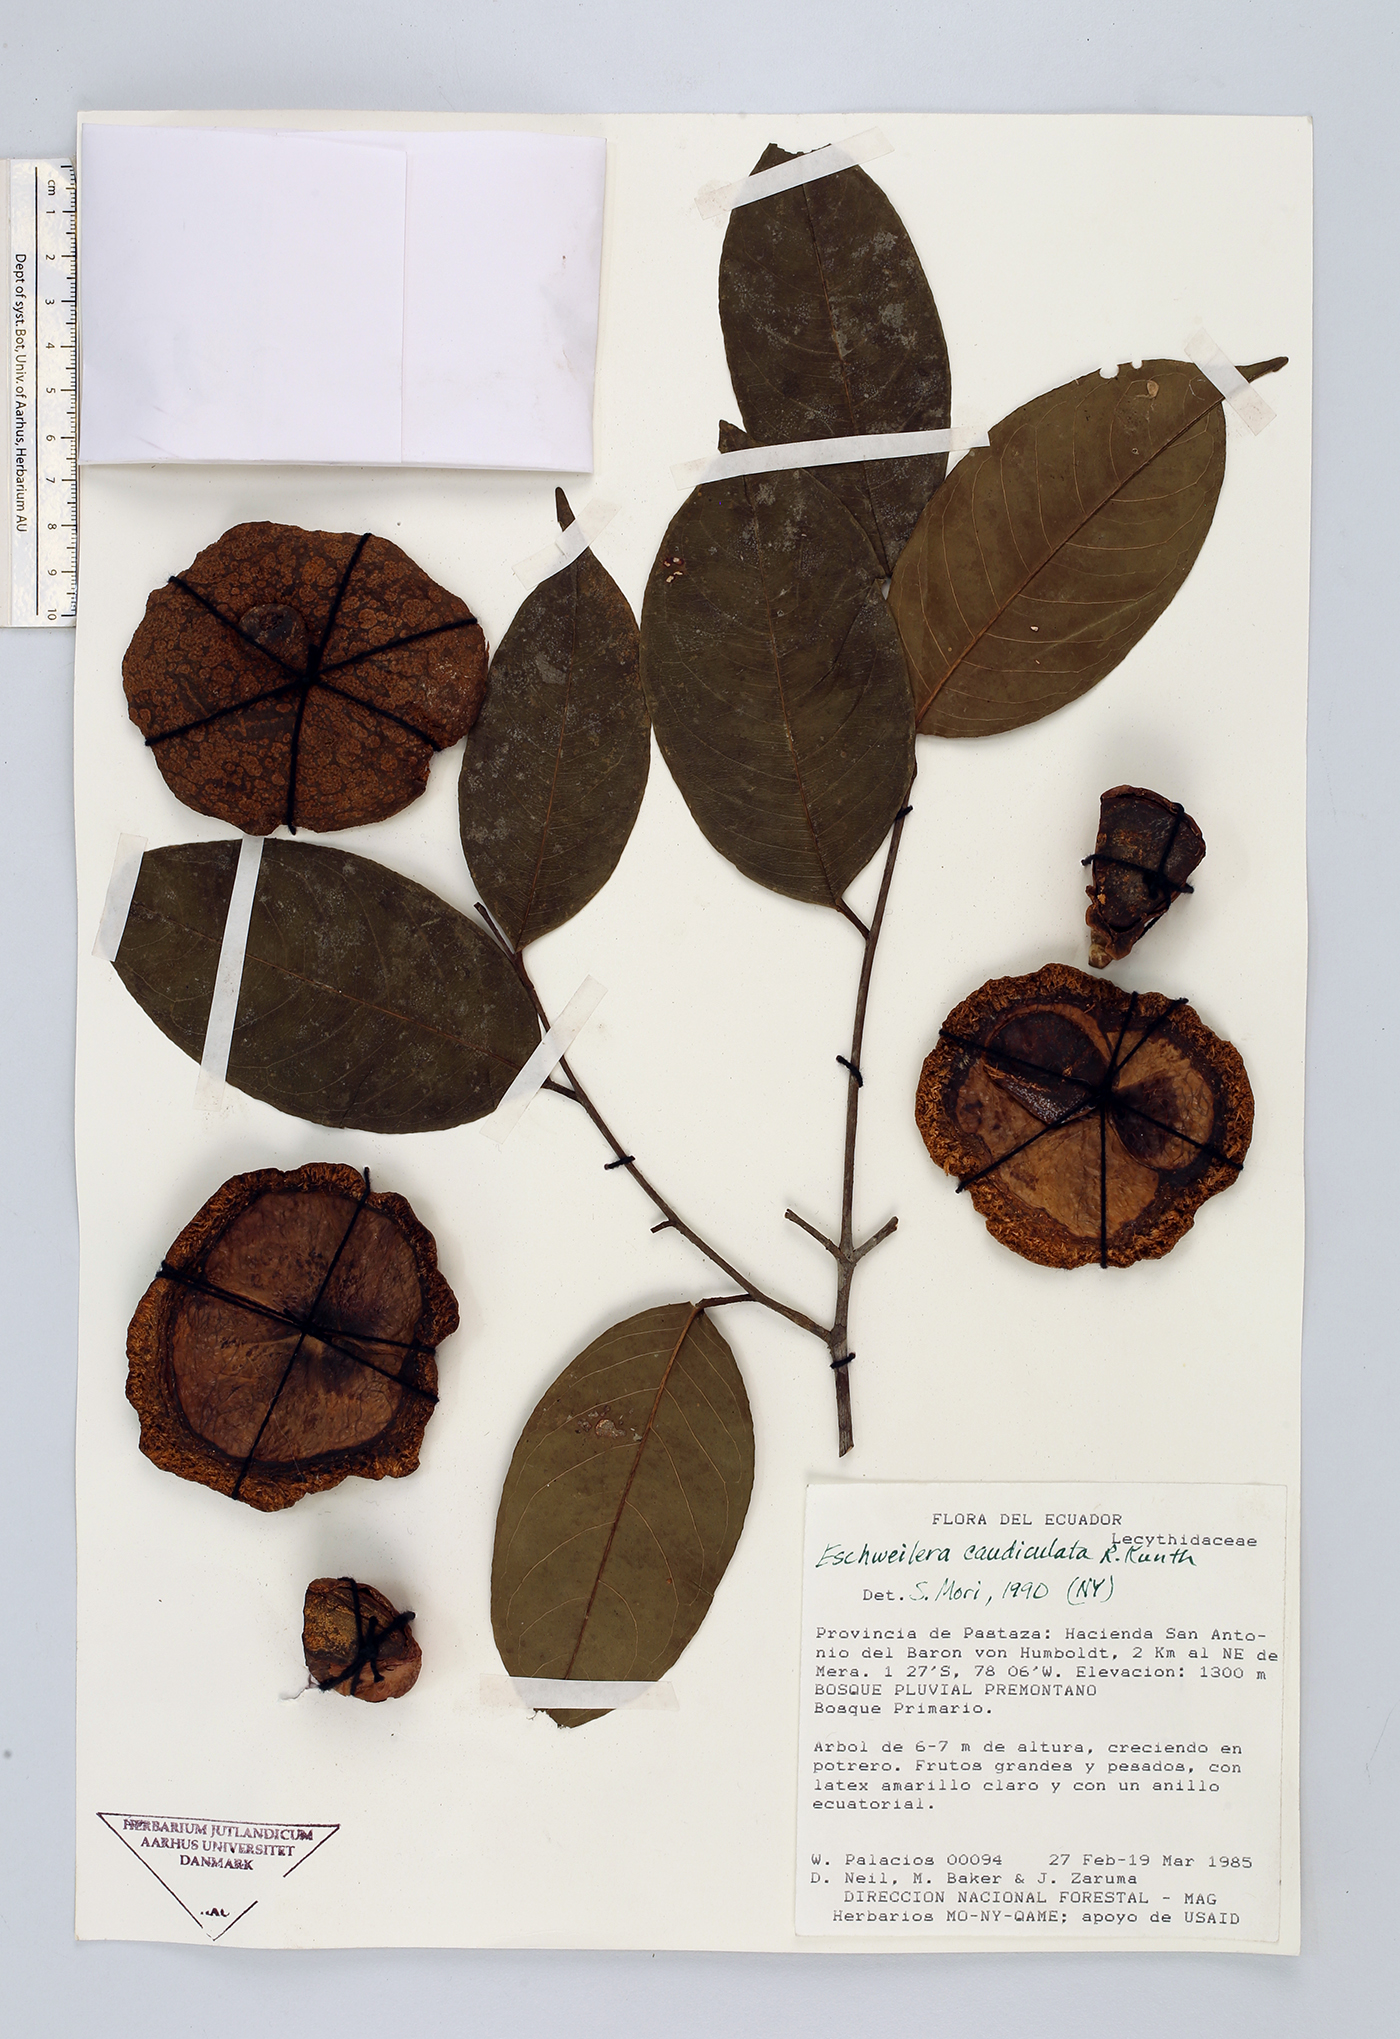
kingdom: Plantae
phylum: Tracheophyta
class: Magnoliopsida
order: Ericales
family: Lecythidaceae
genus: Eschweilera
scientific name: Eschweilera caudiculata
